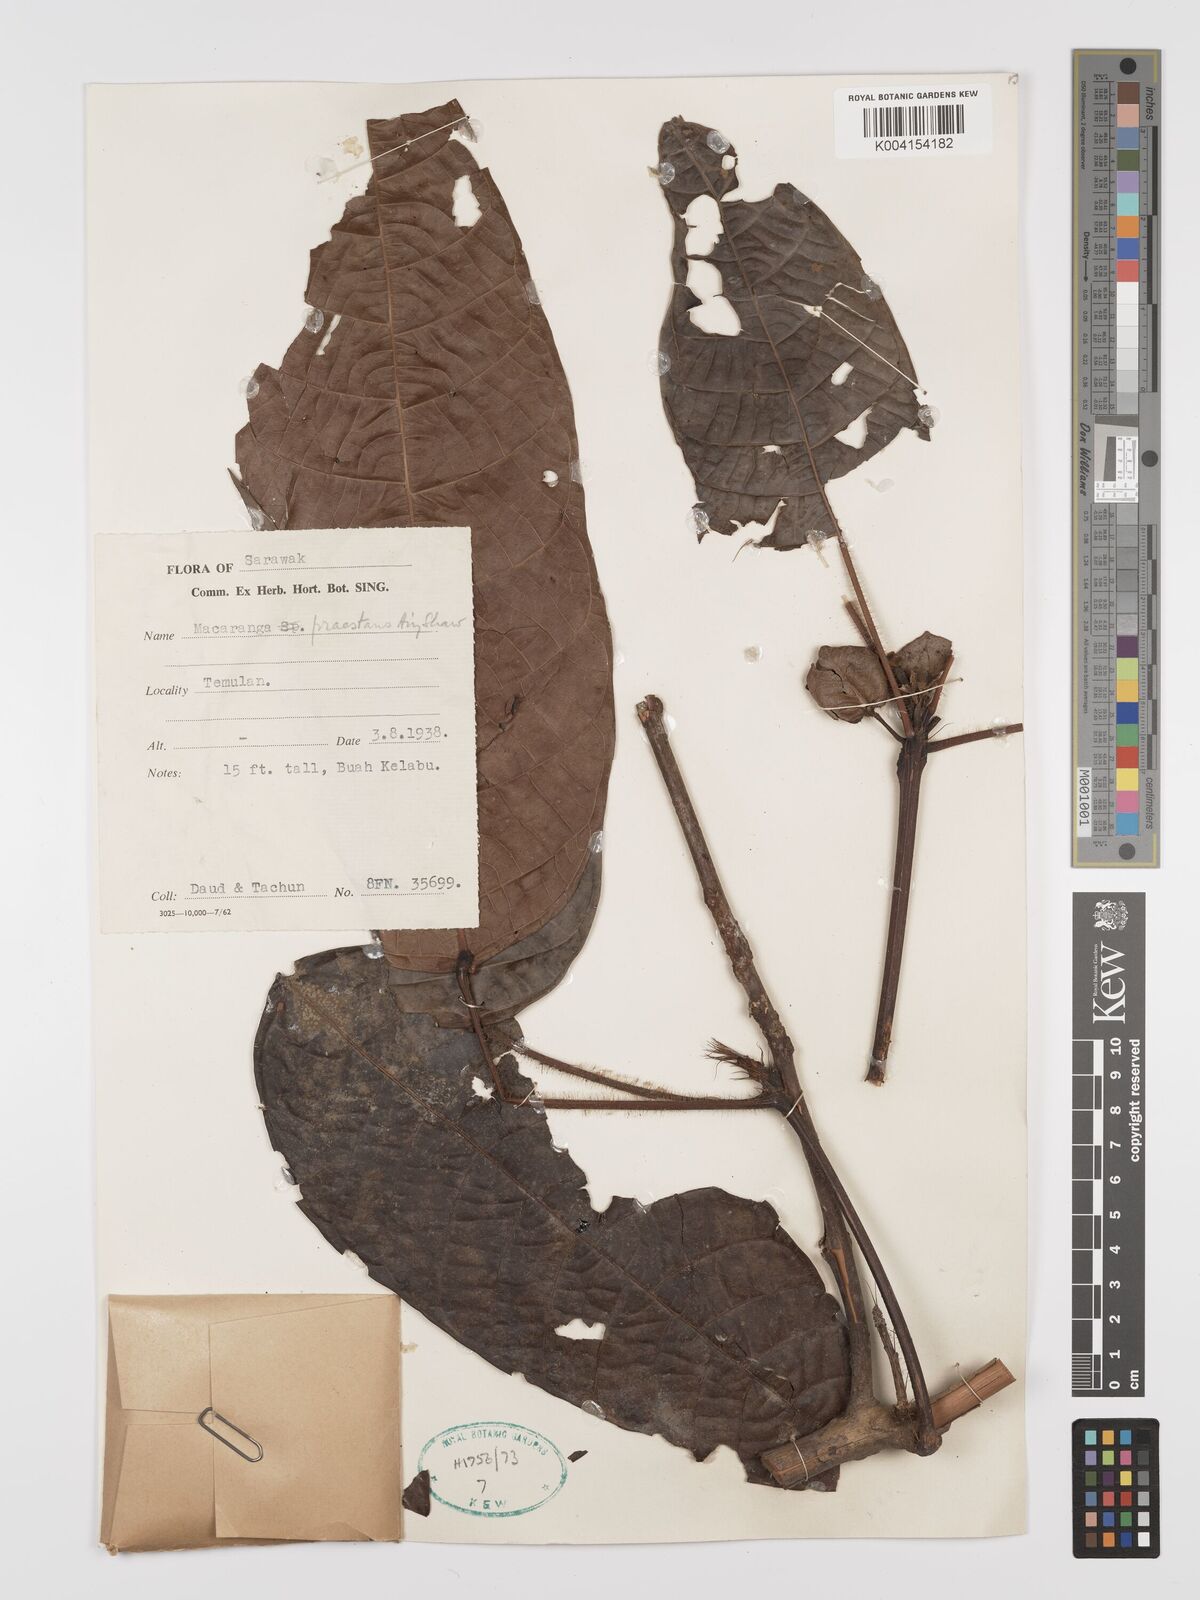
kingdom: Plantae
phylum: Tracheophyta
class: Magnoliopsida
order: Malpighiales
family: Euphorbiaceae
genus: Macaranga
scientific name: Macaranga praestans
